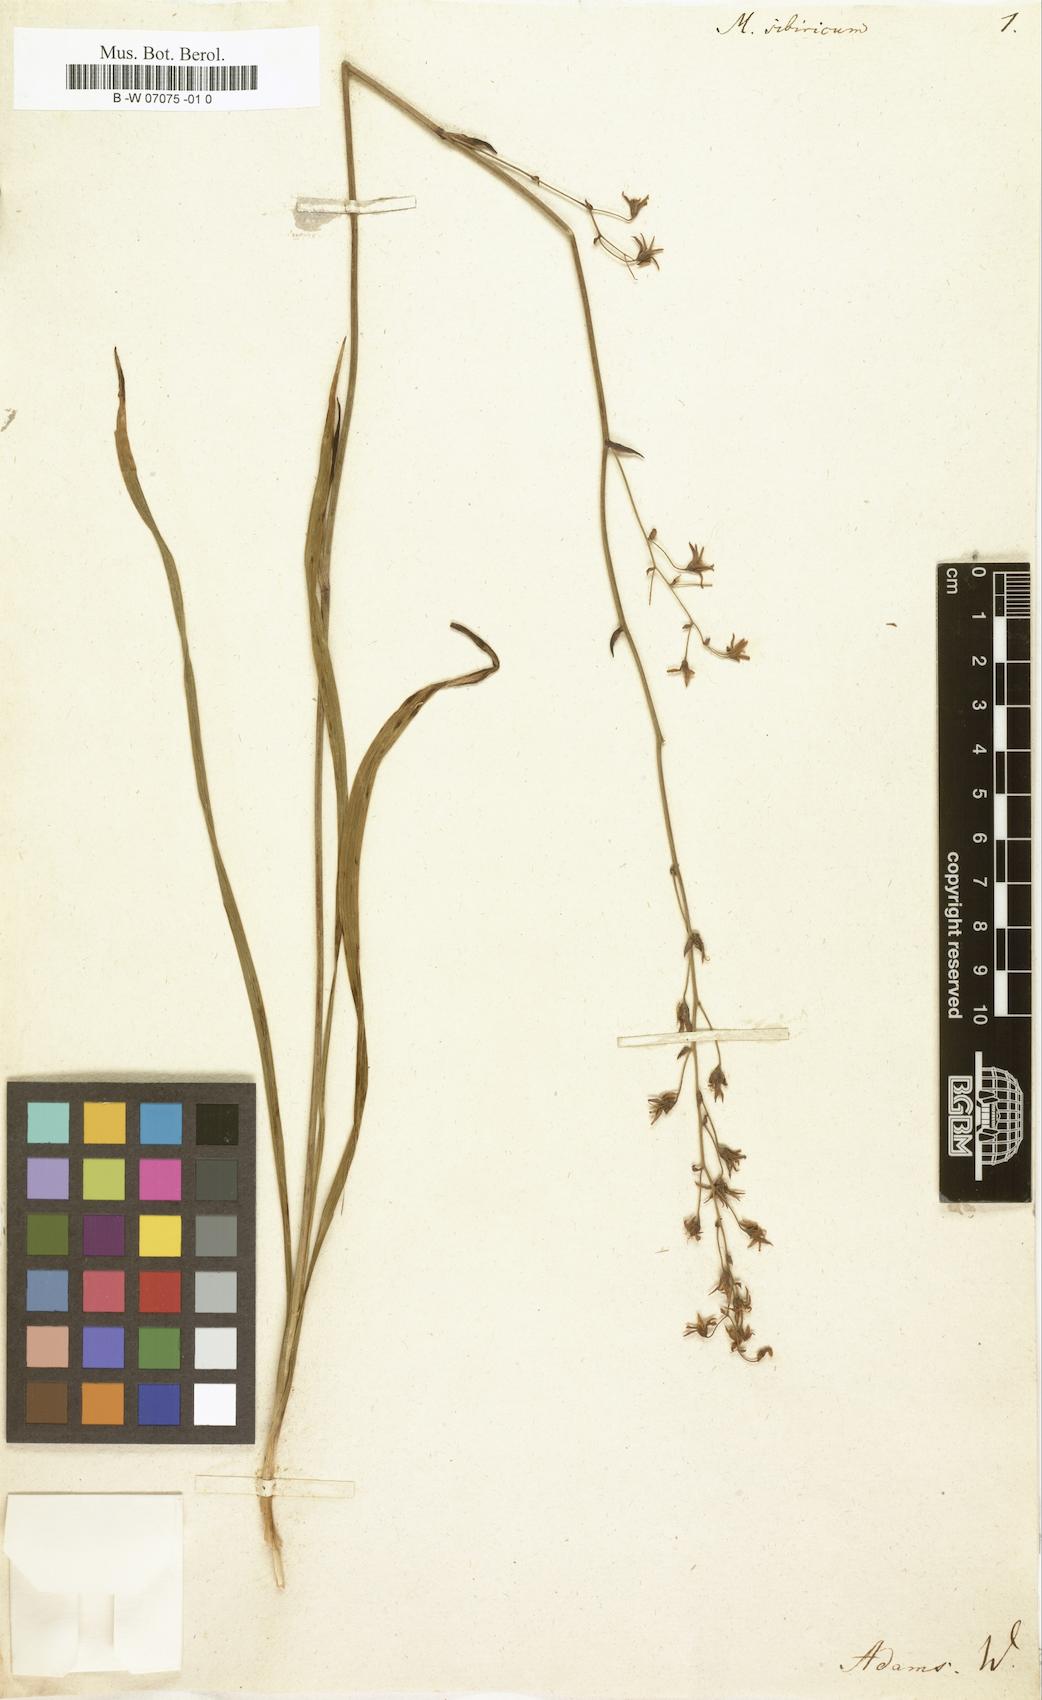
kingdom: Plantae
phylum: Tracheophyta
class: Liliopsida
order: Liliales
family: Melanthiaceae
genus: Anticlea
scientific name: Anticlea sibirica
